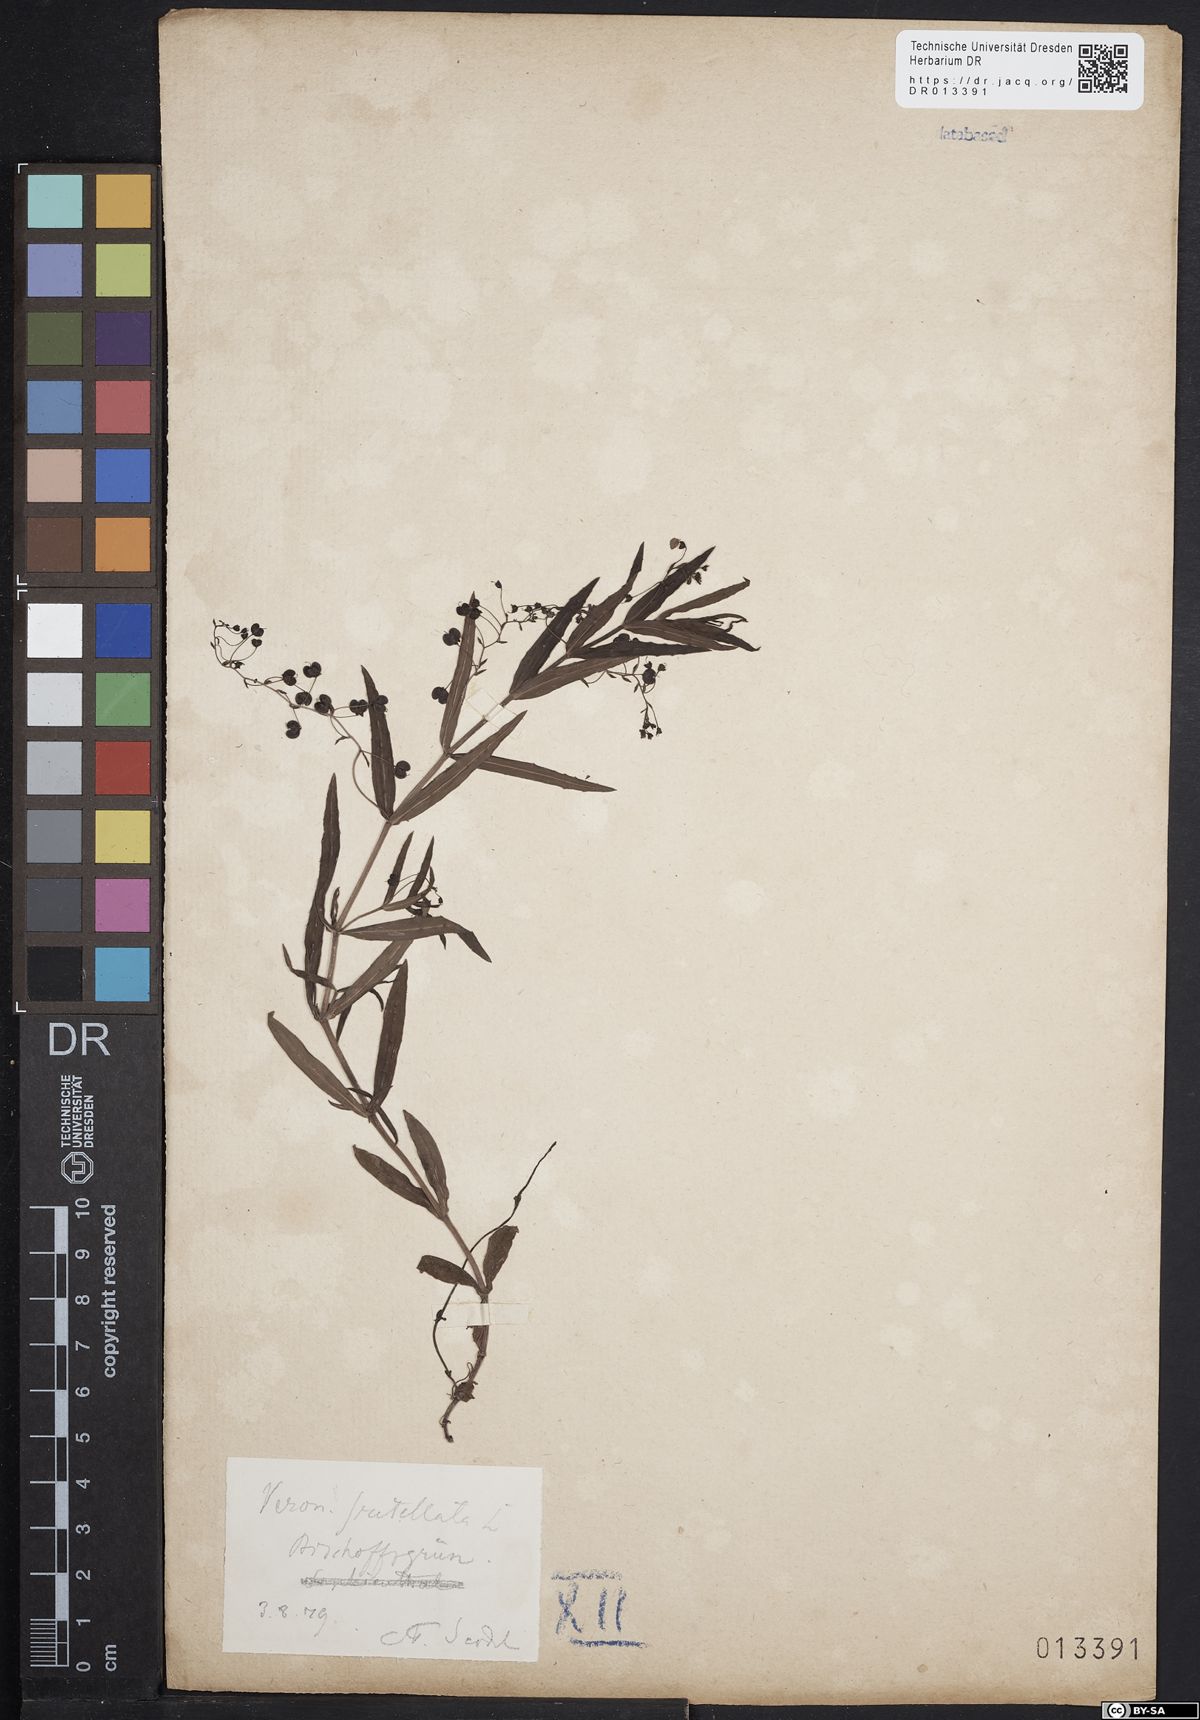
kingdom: Plantae
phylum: Tracheophyta
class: Magnoliopsida
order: Lamiales
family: Plantaginaceae
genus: Veronica
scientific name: Veronica scutellata
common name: Marsh speedwell
